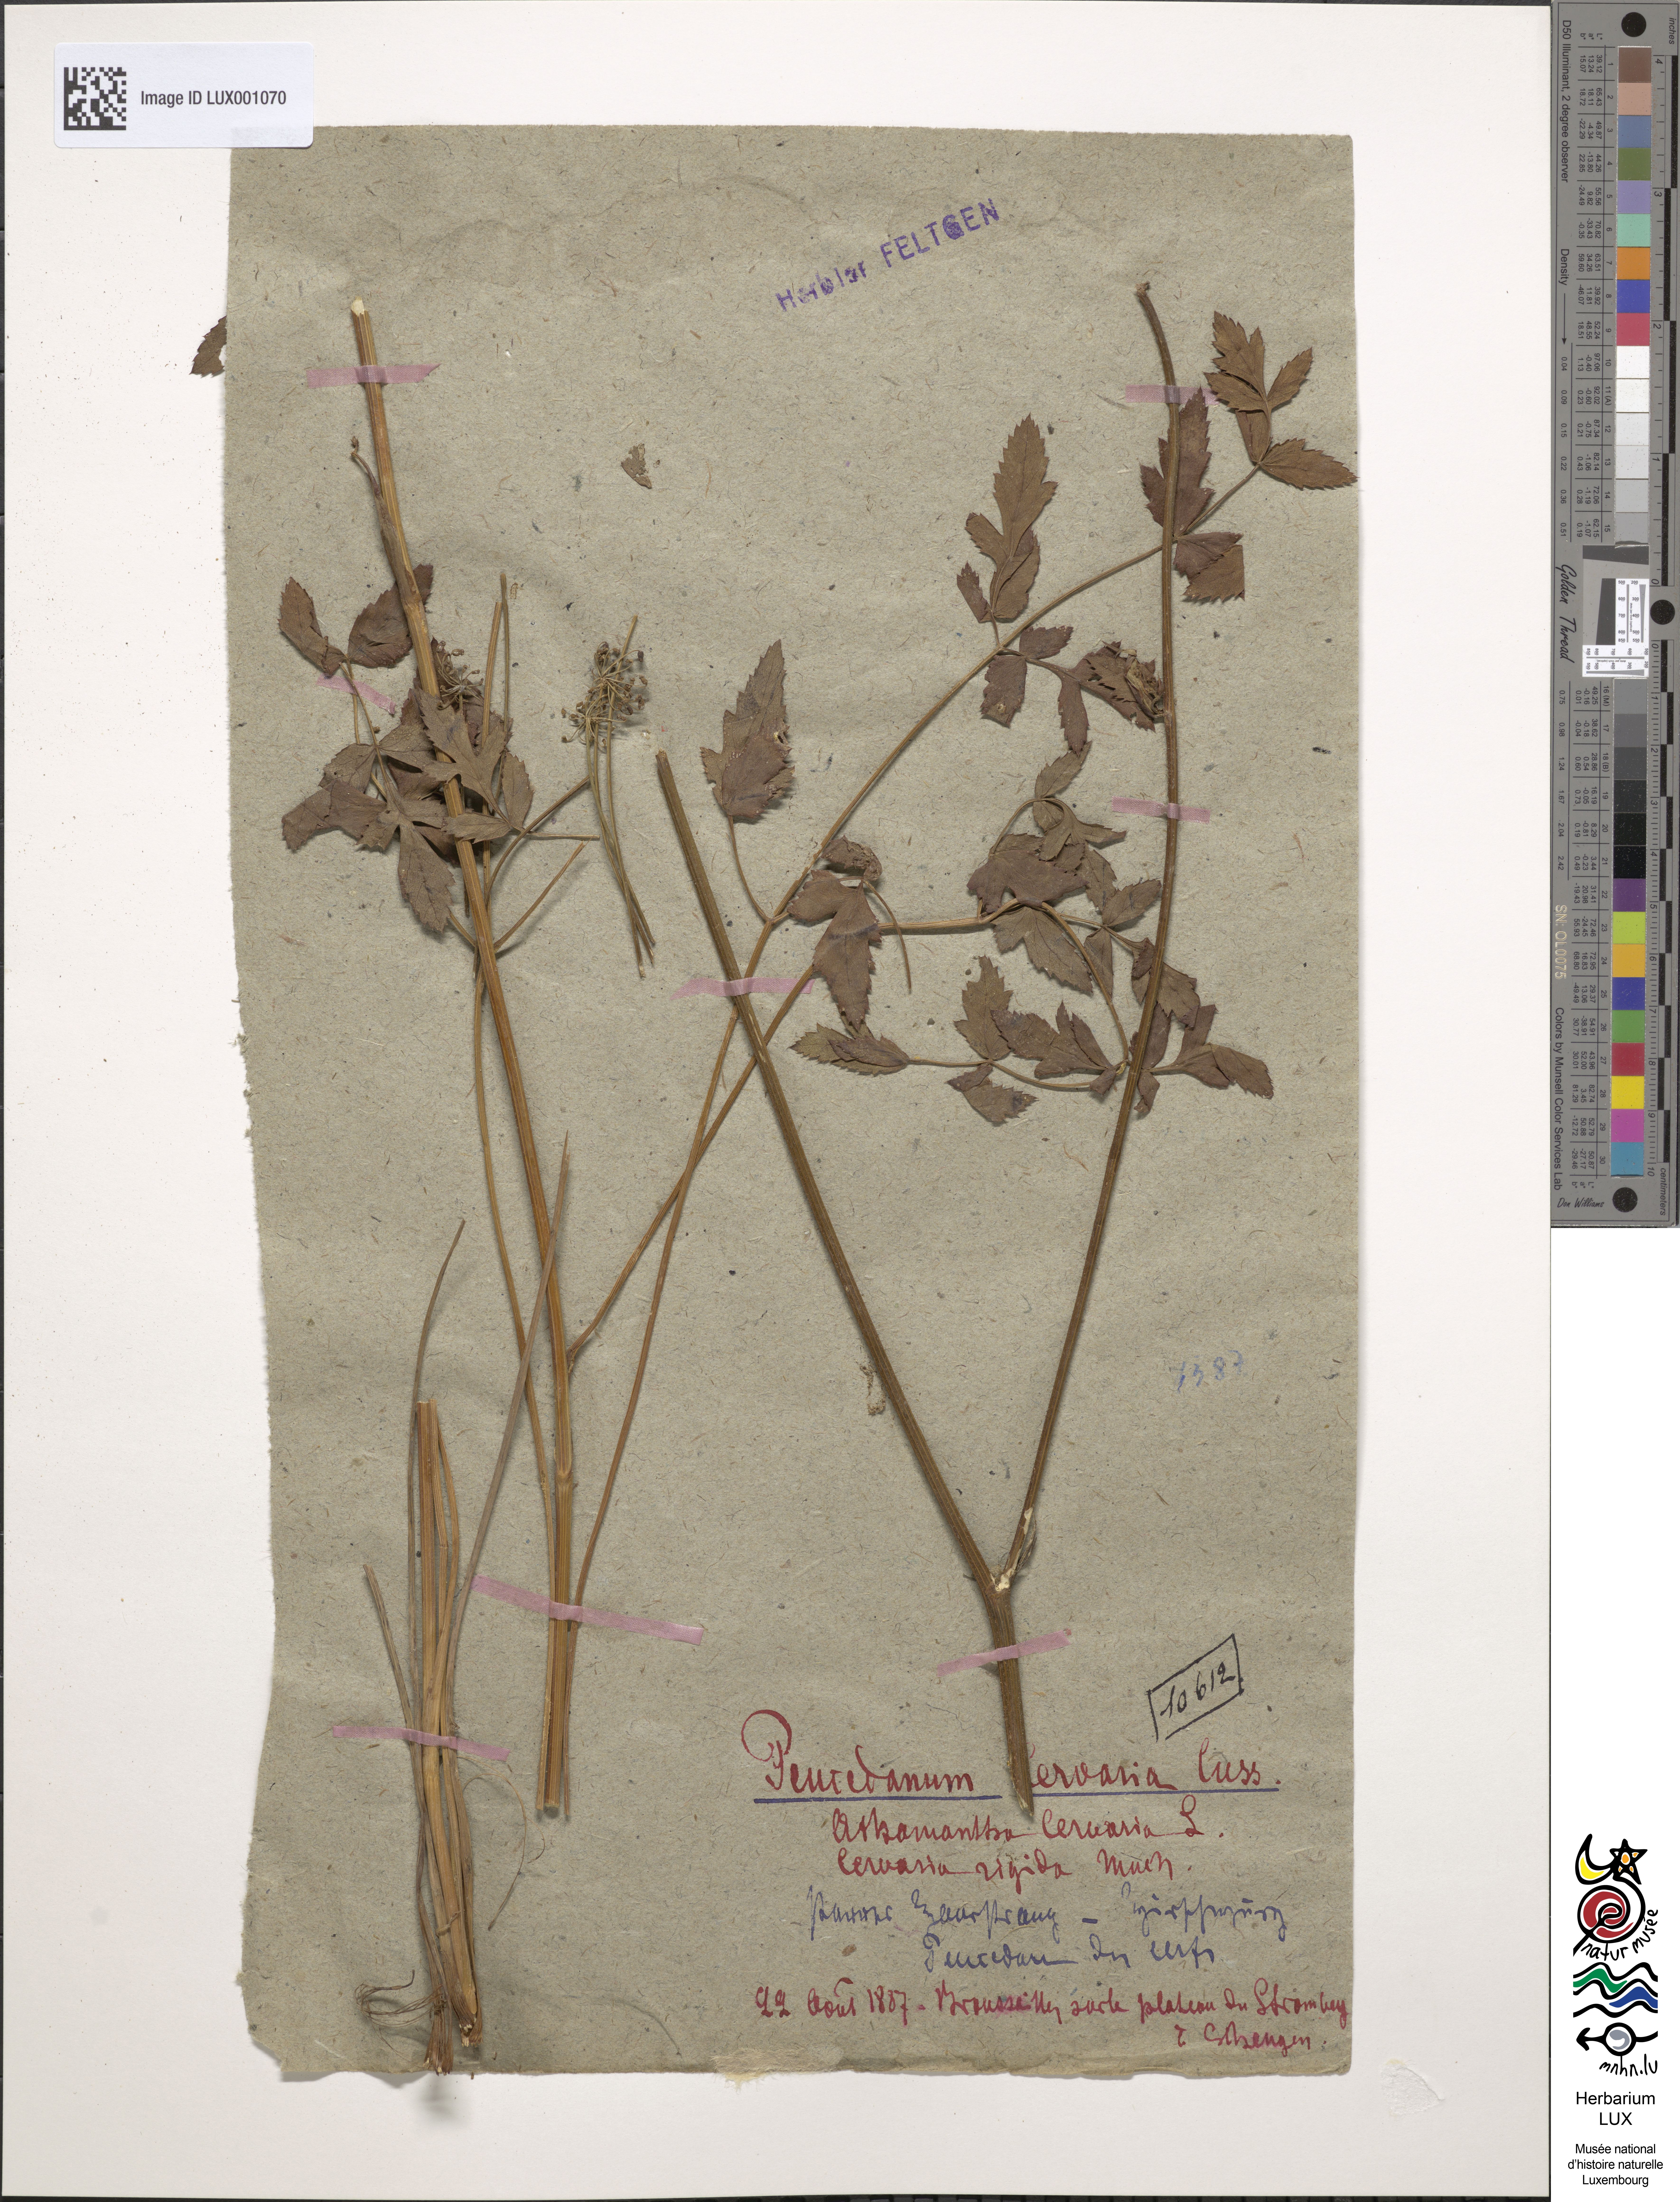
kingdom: Plantae
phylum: Tracheophyta
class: Magnoliopsida
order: Apiales
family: Apiaceae
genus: Cervaria
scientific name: Cervaria rivini
